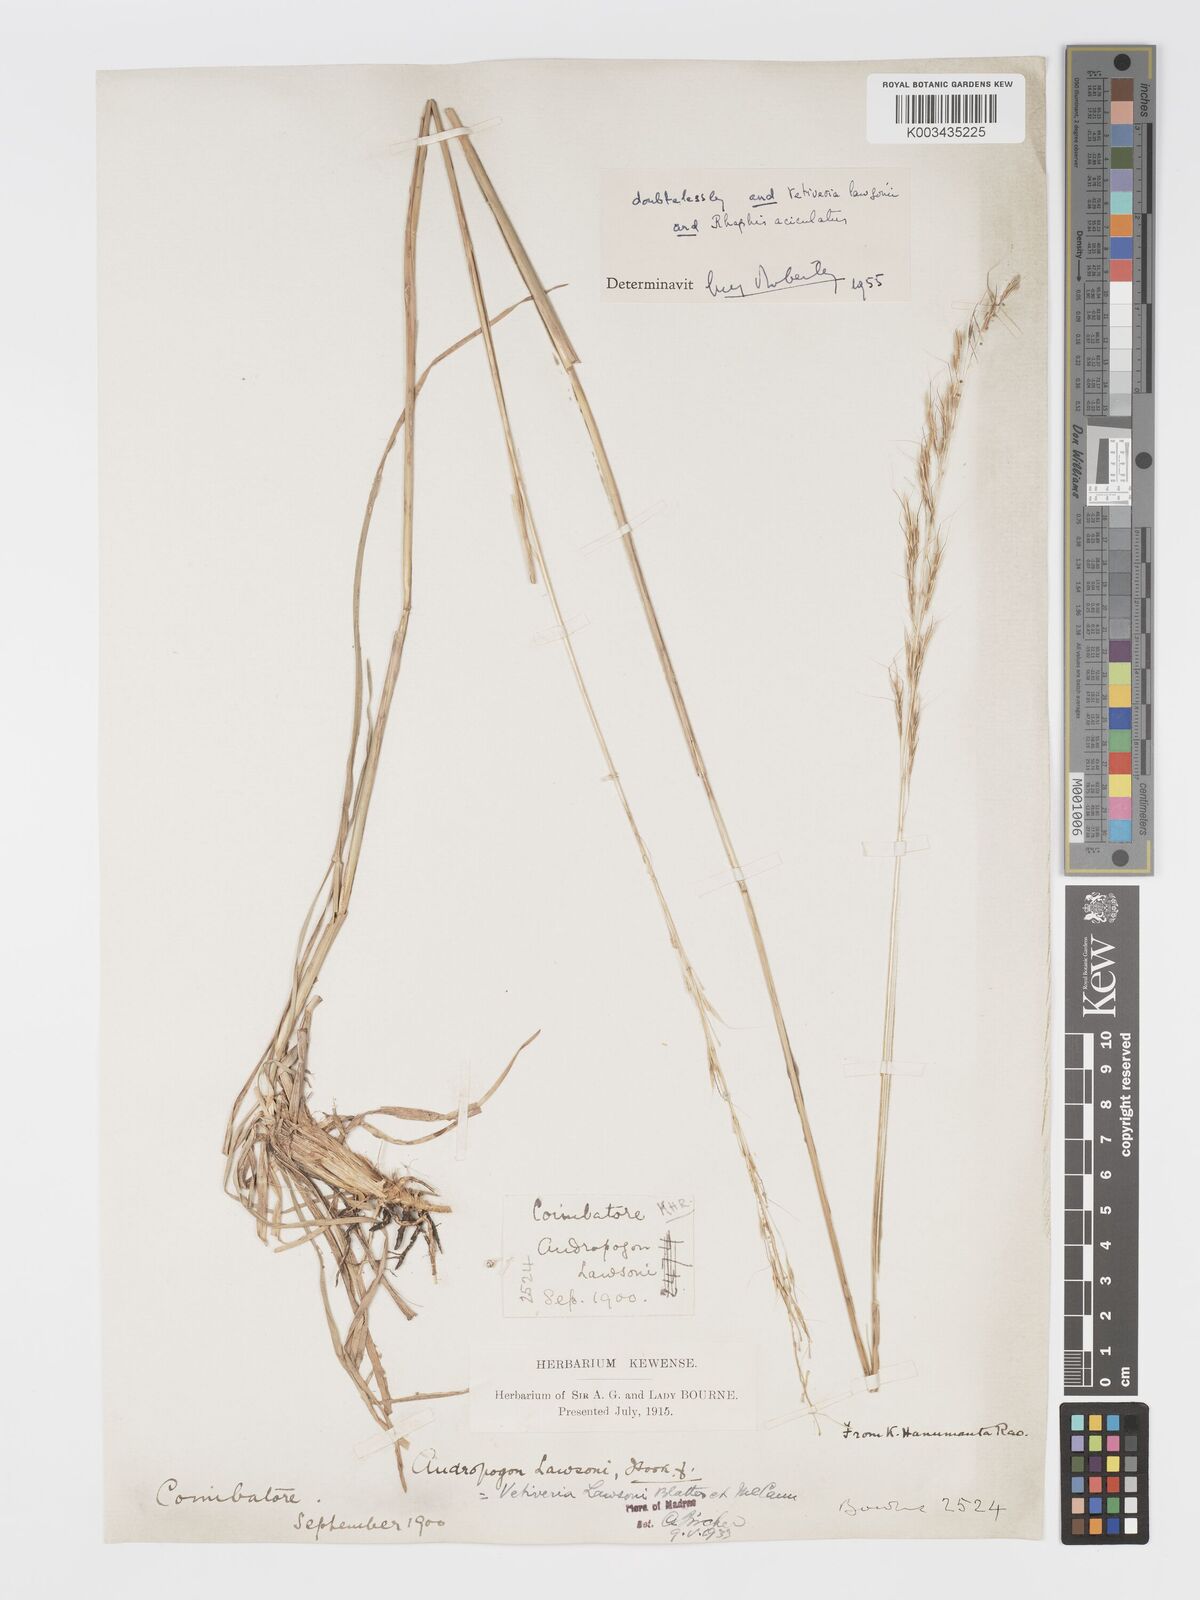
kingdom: Plantae
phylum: Tracheophyta
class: Liliopsida
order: Poales
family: Poaceae
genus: Chrysopogon
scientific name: Chrysopogon lawsonii
